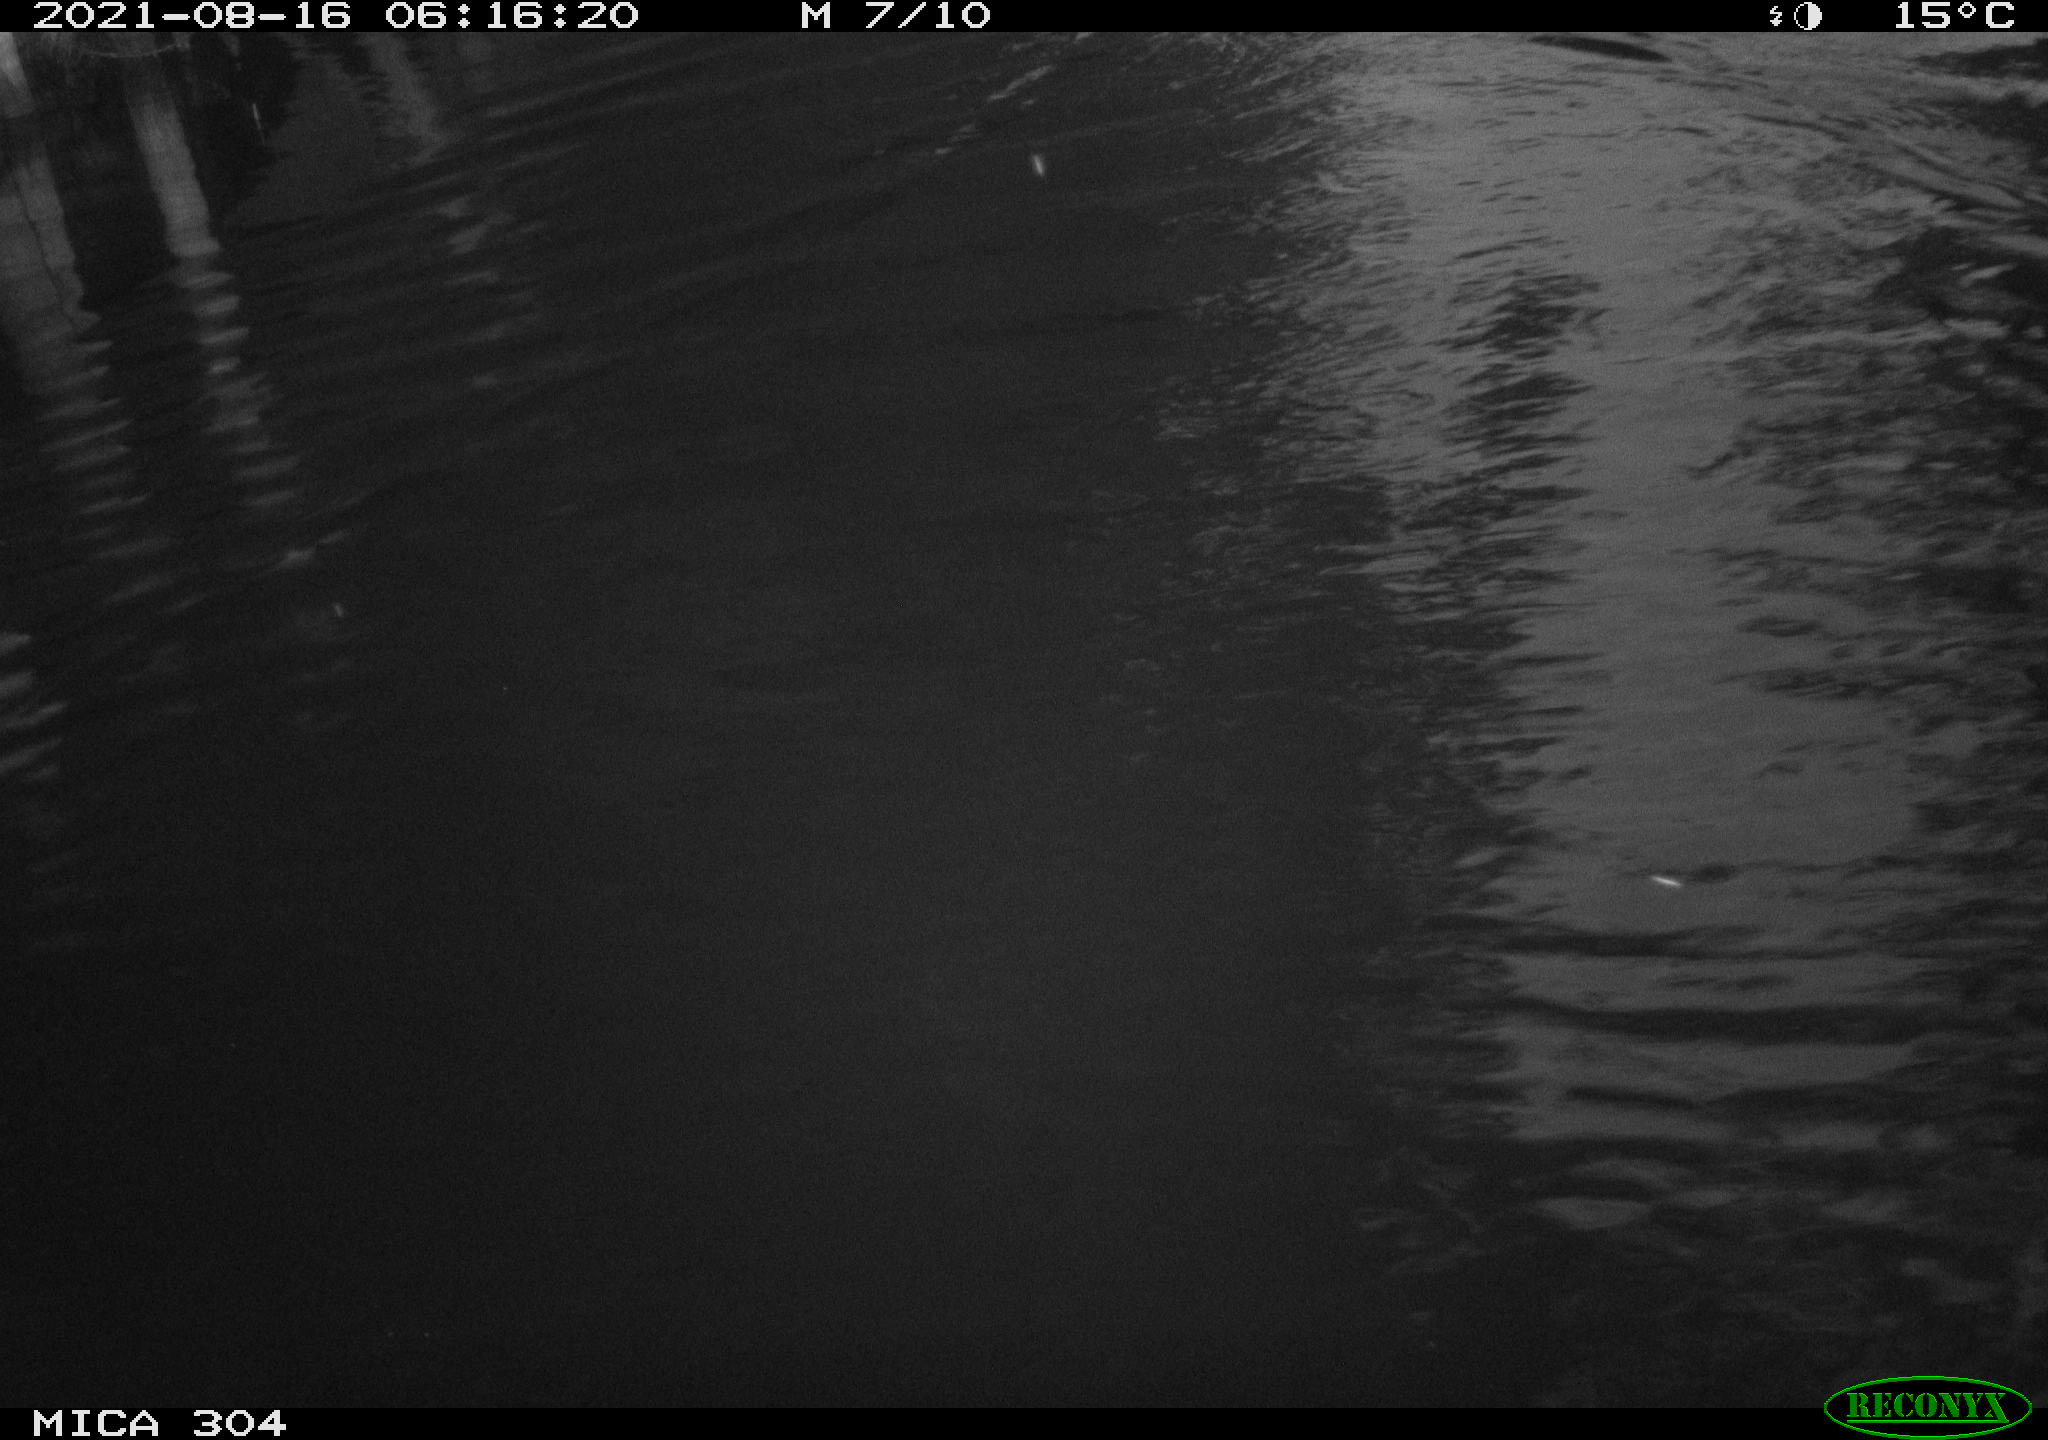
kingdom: Animalia
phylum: Chordata
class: Aves
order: Anseriformes
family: Anatidae
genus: Anas
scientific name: Anas platyrhynchos
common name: Mallard
